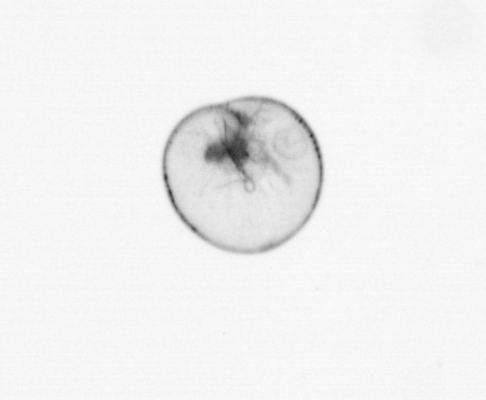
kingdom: Chromista
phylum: Myzozoa
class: Dinophyceae
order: Noctilucales
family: Noctilucaceae
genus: Noctiluca
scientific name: Noctiluca scintillans
